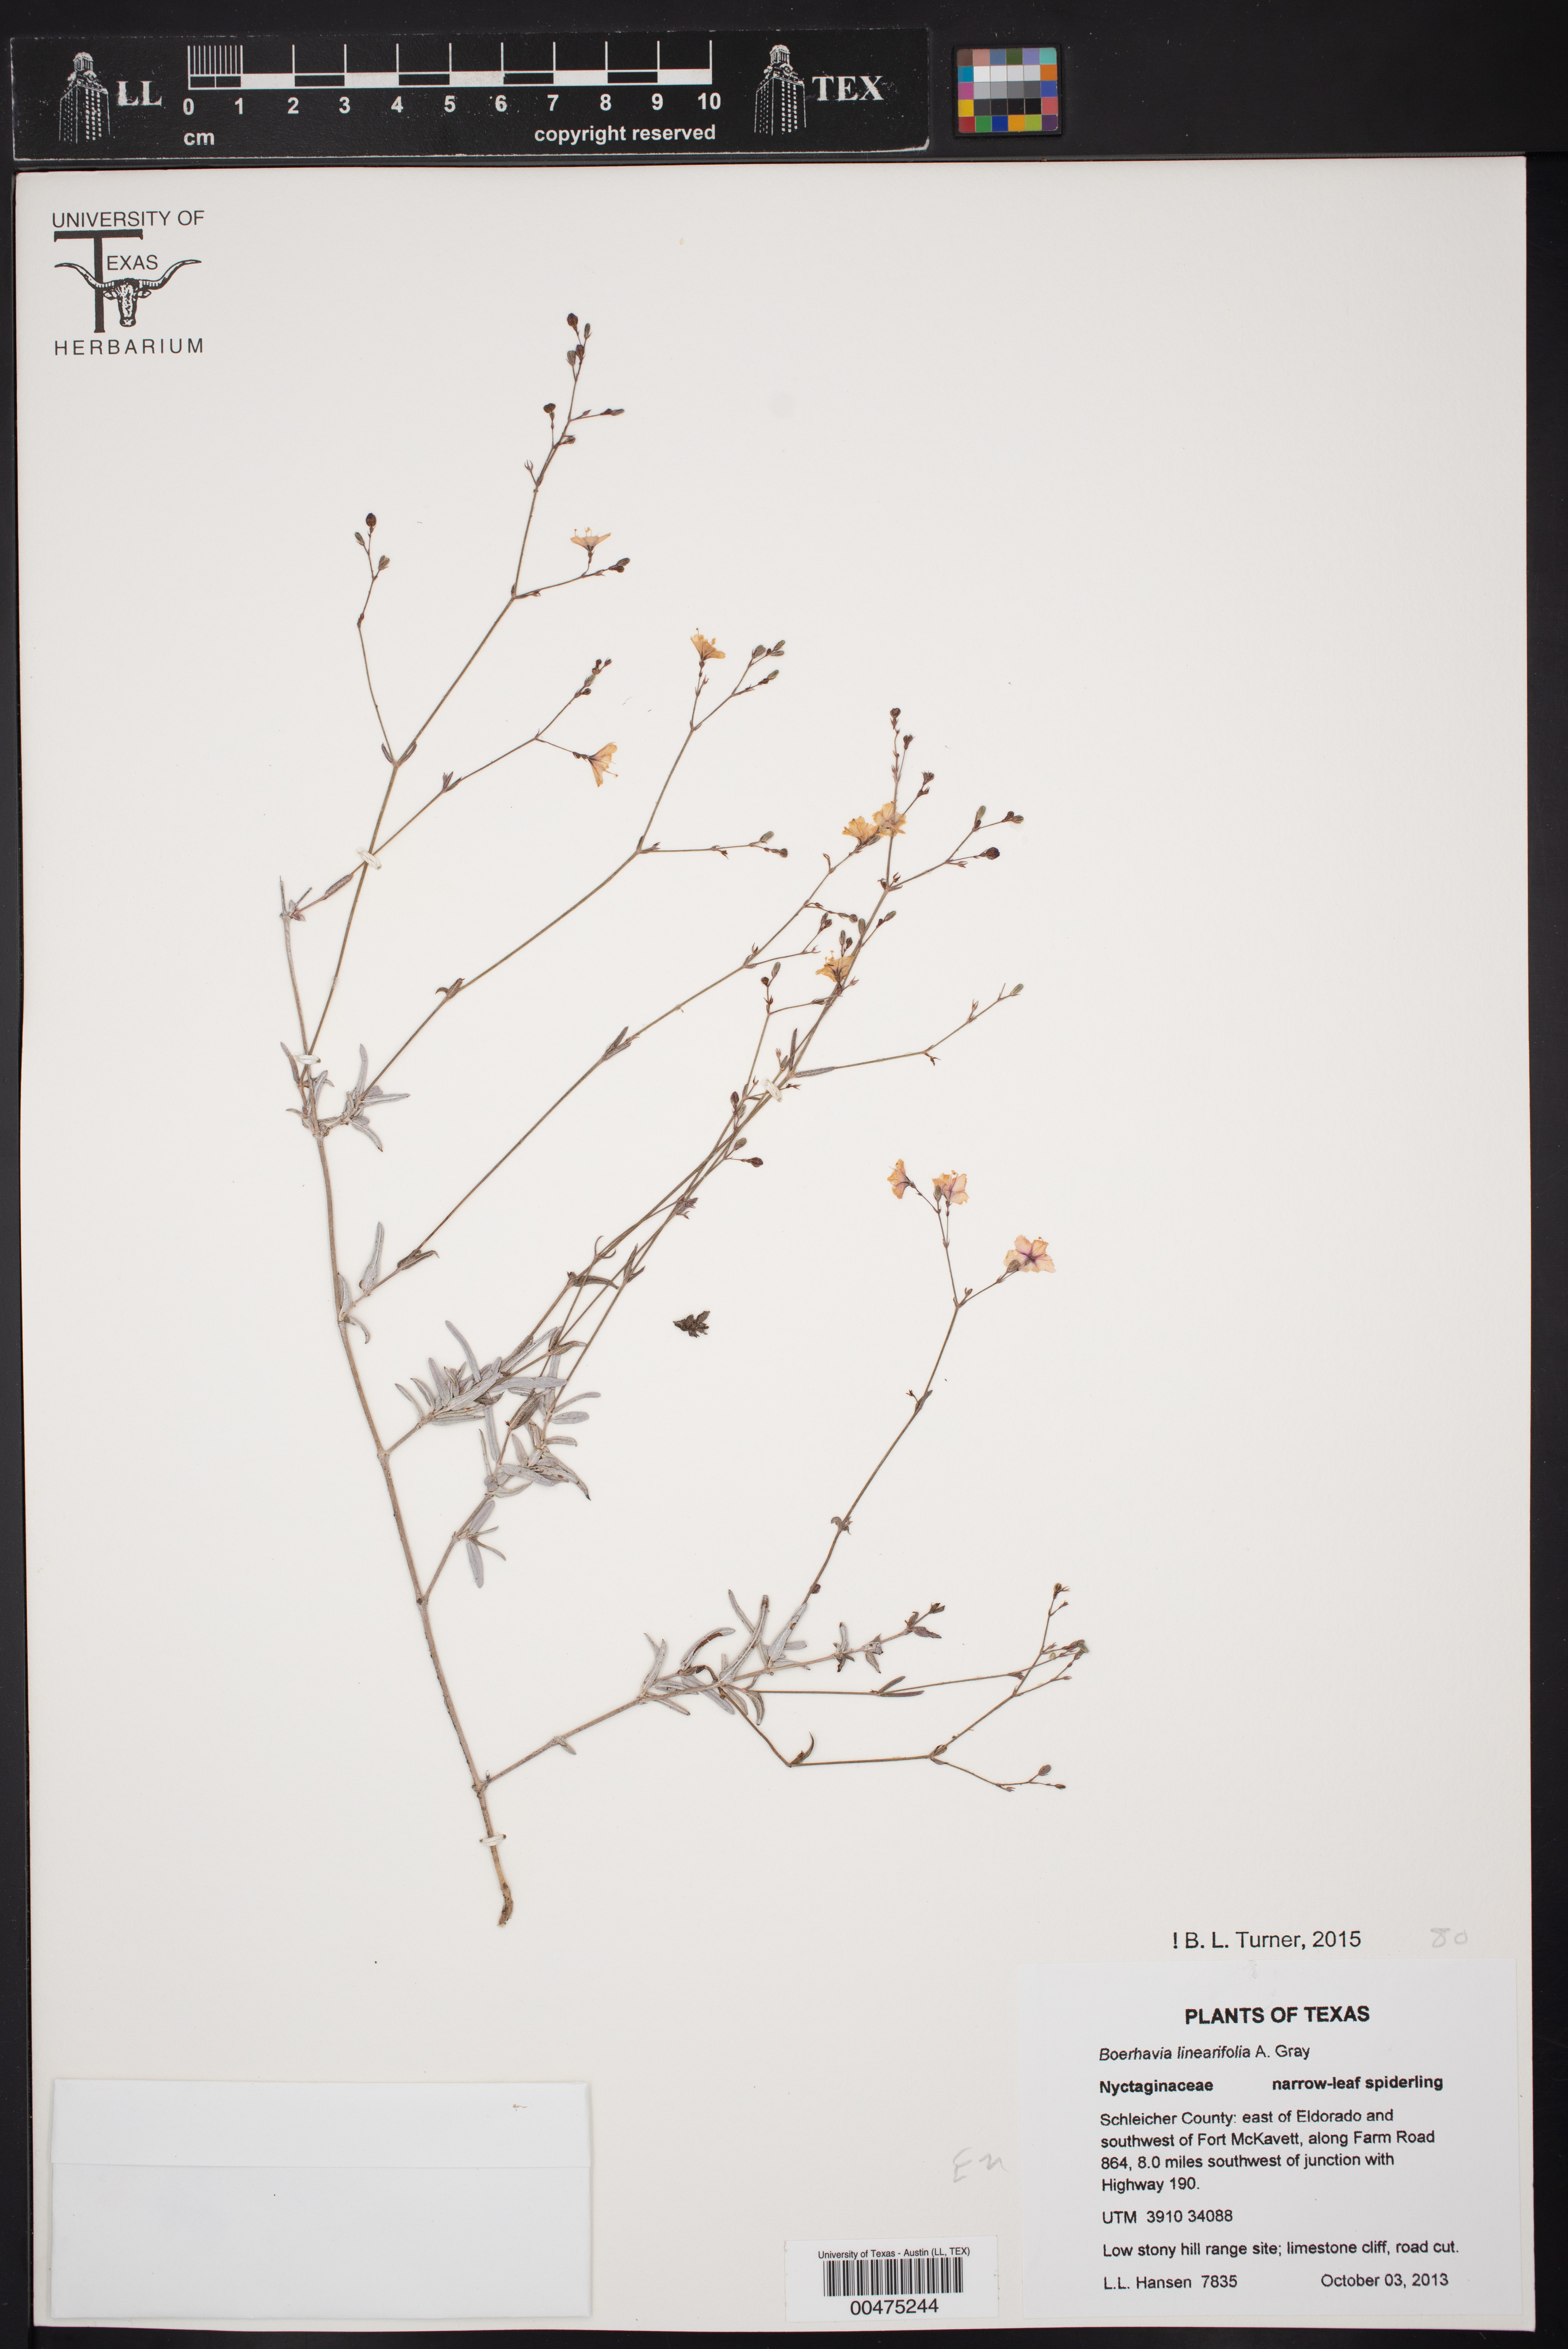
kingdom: Plantae
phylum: Tracheophyta
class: Magnoliopsida
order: Caryophyllales
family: Nyctaginaceae
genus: Boerhavia
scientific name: Boerhavia linearifolia
